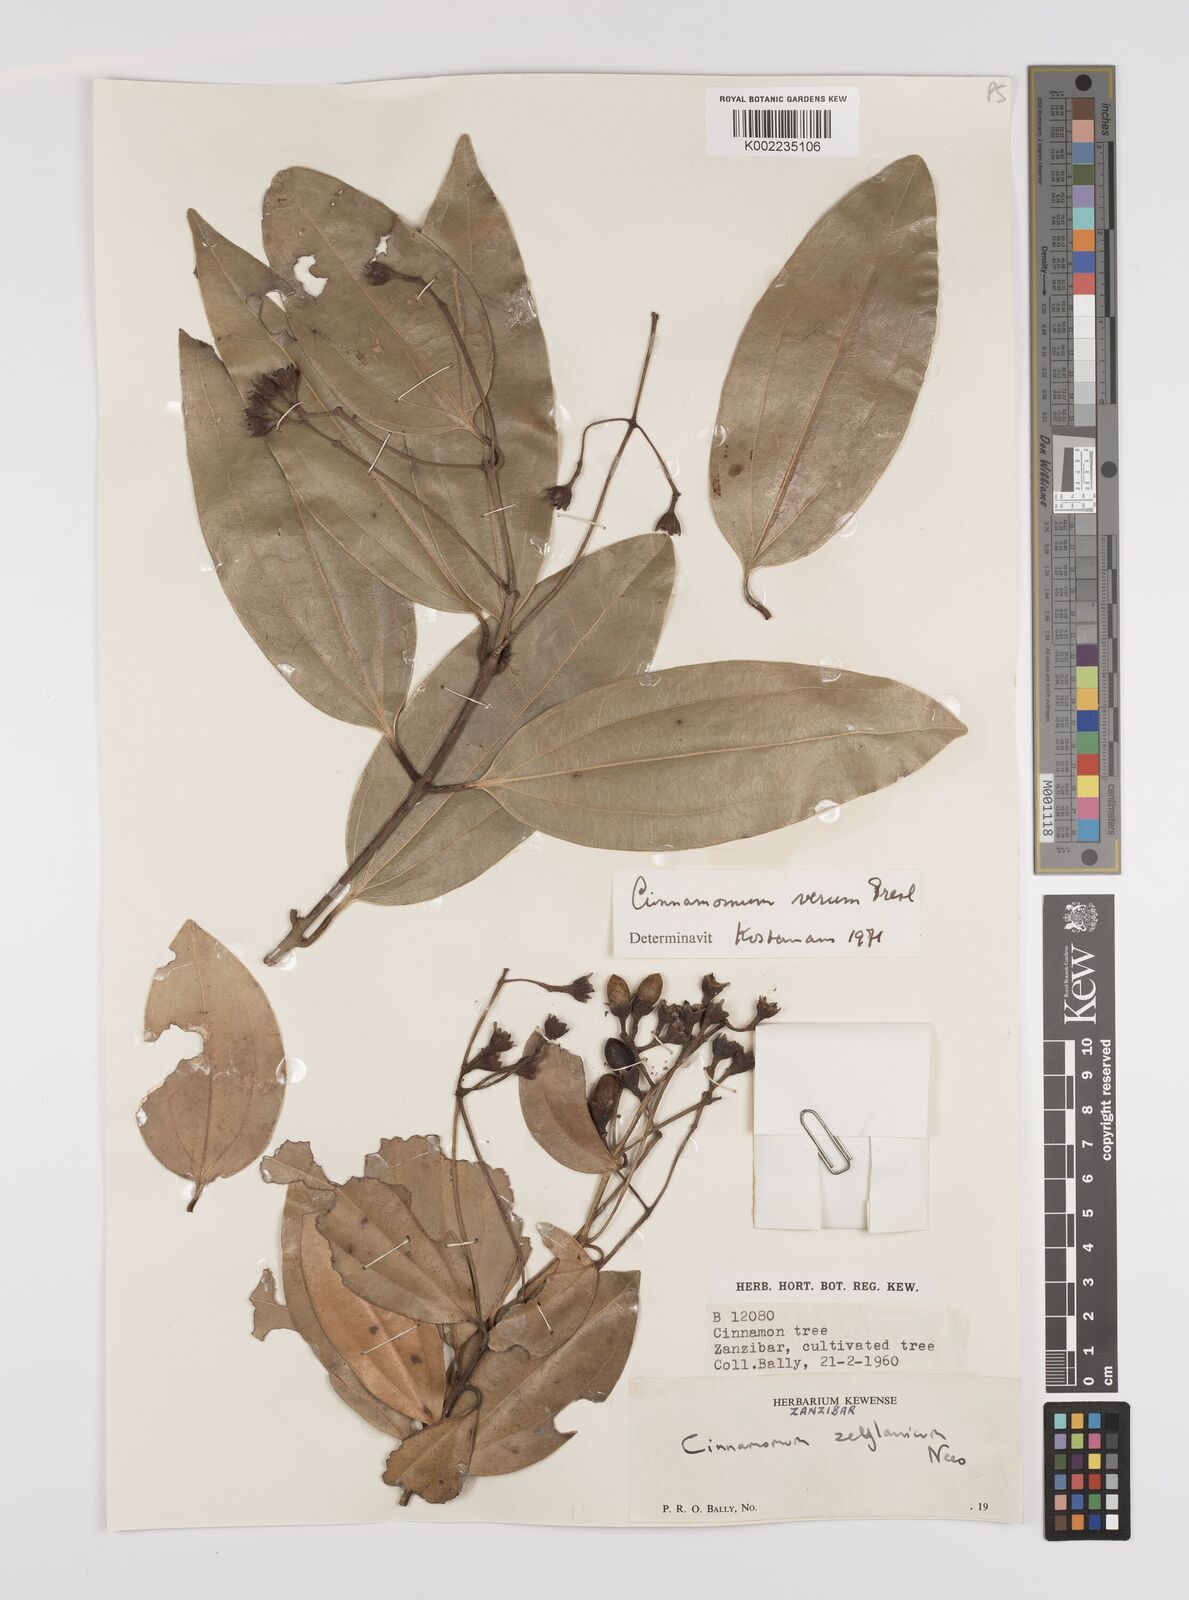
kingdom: Plantae
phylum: Tracheophyta
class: Magnoliopsida
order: Laurales
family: Lauraceae
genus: Cinnamomum
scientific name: Cinnamomum verum
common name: Cinnamon
